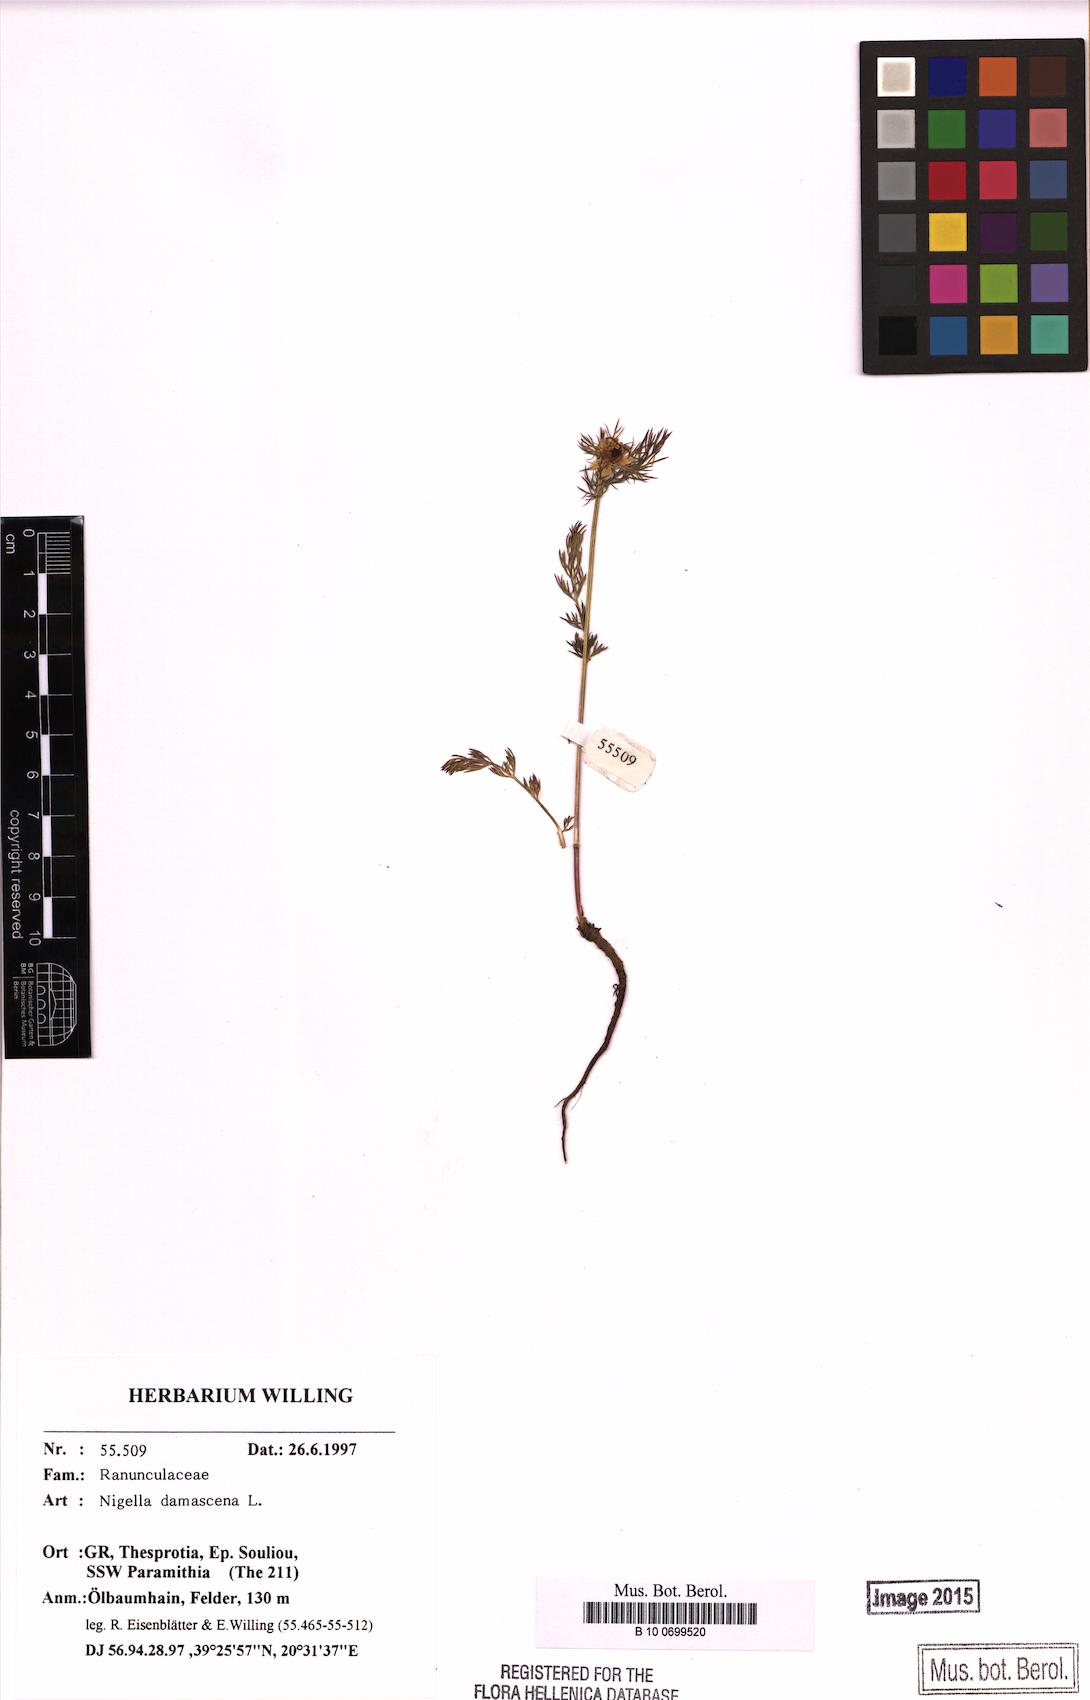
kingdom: Plantae
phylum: Tracheophyta
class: Magnoliopsida
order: Ranunculales
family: Ranunculaceae
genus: Nigella
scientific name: Nigella damascena
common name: Love-in-a-mist
